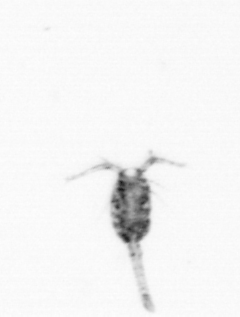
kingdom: Animalia
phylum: Arthropoda
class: Copepoda
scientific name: Copepoda
